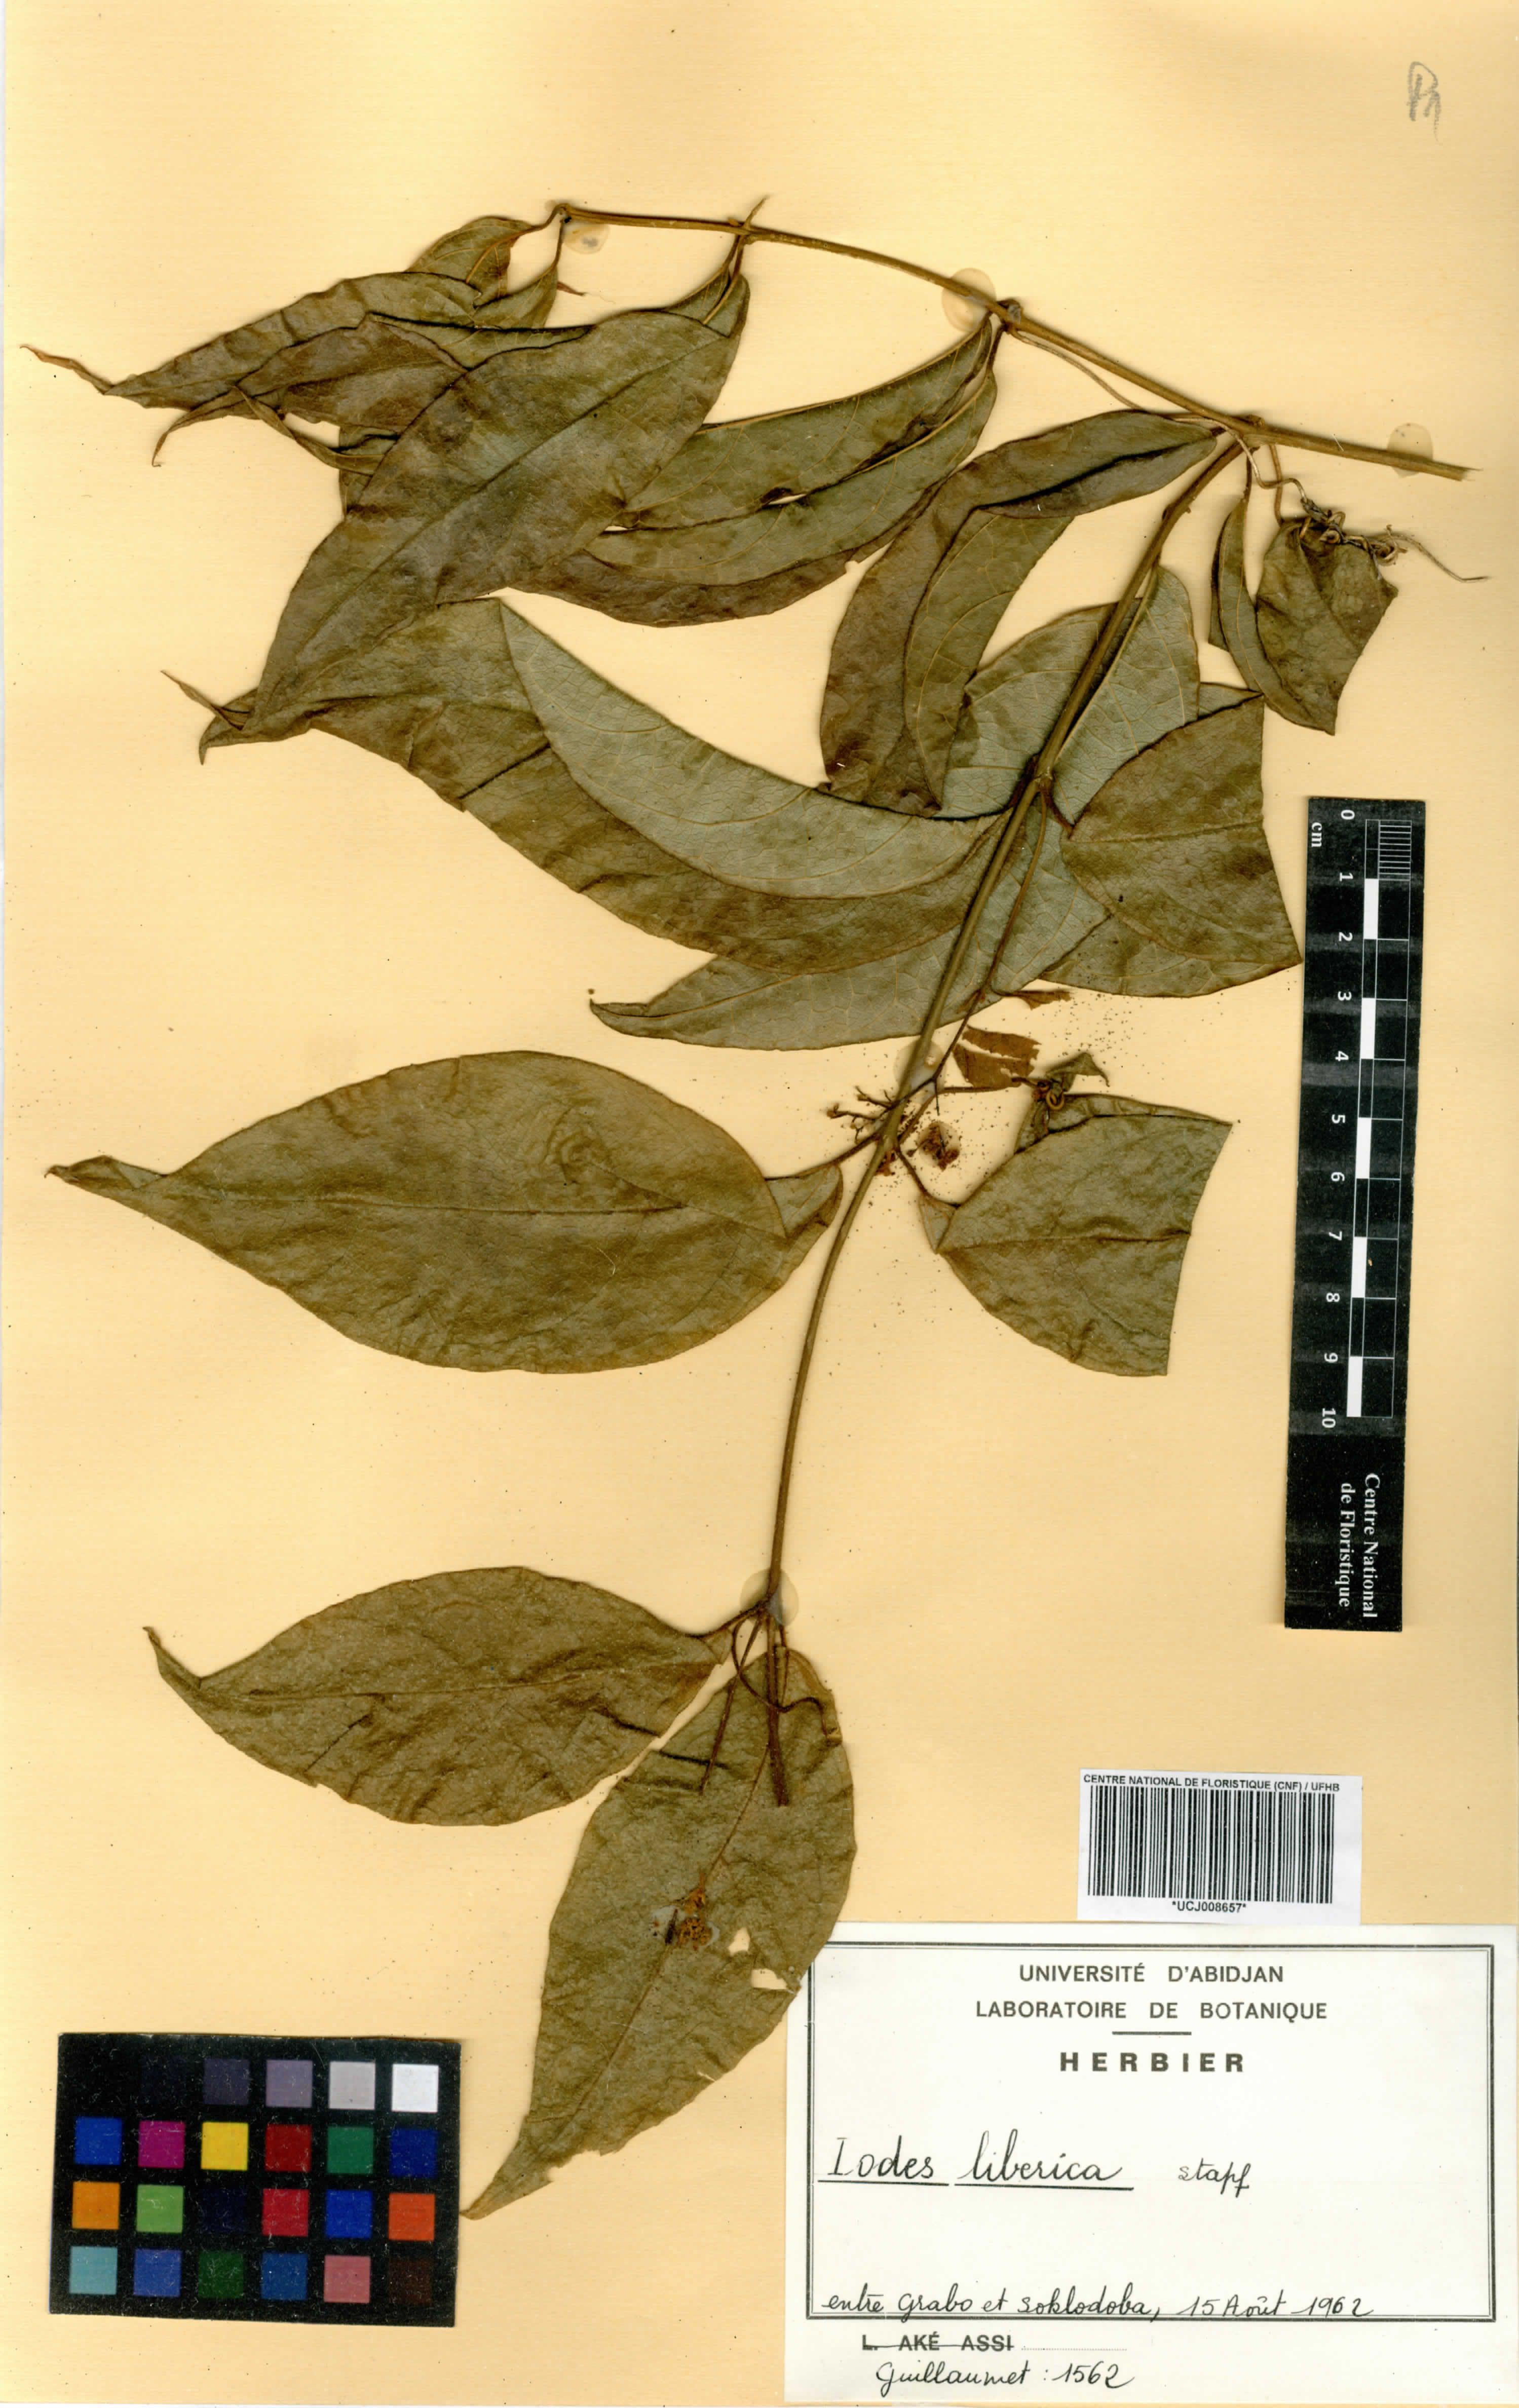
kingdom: Plantae
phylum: Tracheophyta
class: Magnoliopsida
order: Icacinales
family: Icacinaceae
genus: Iodes
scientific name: Iodes liberica
